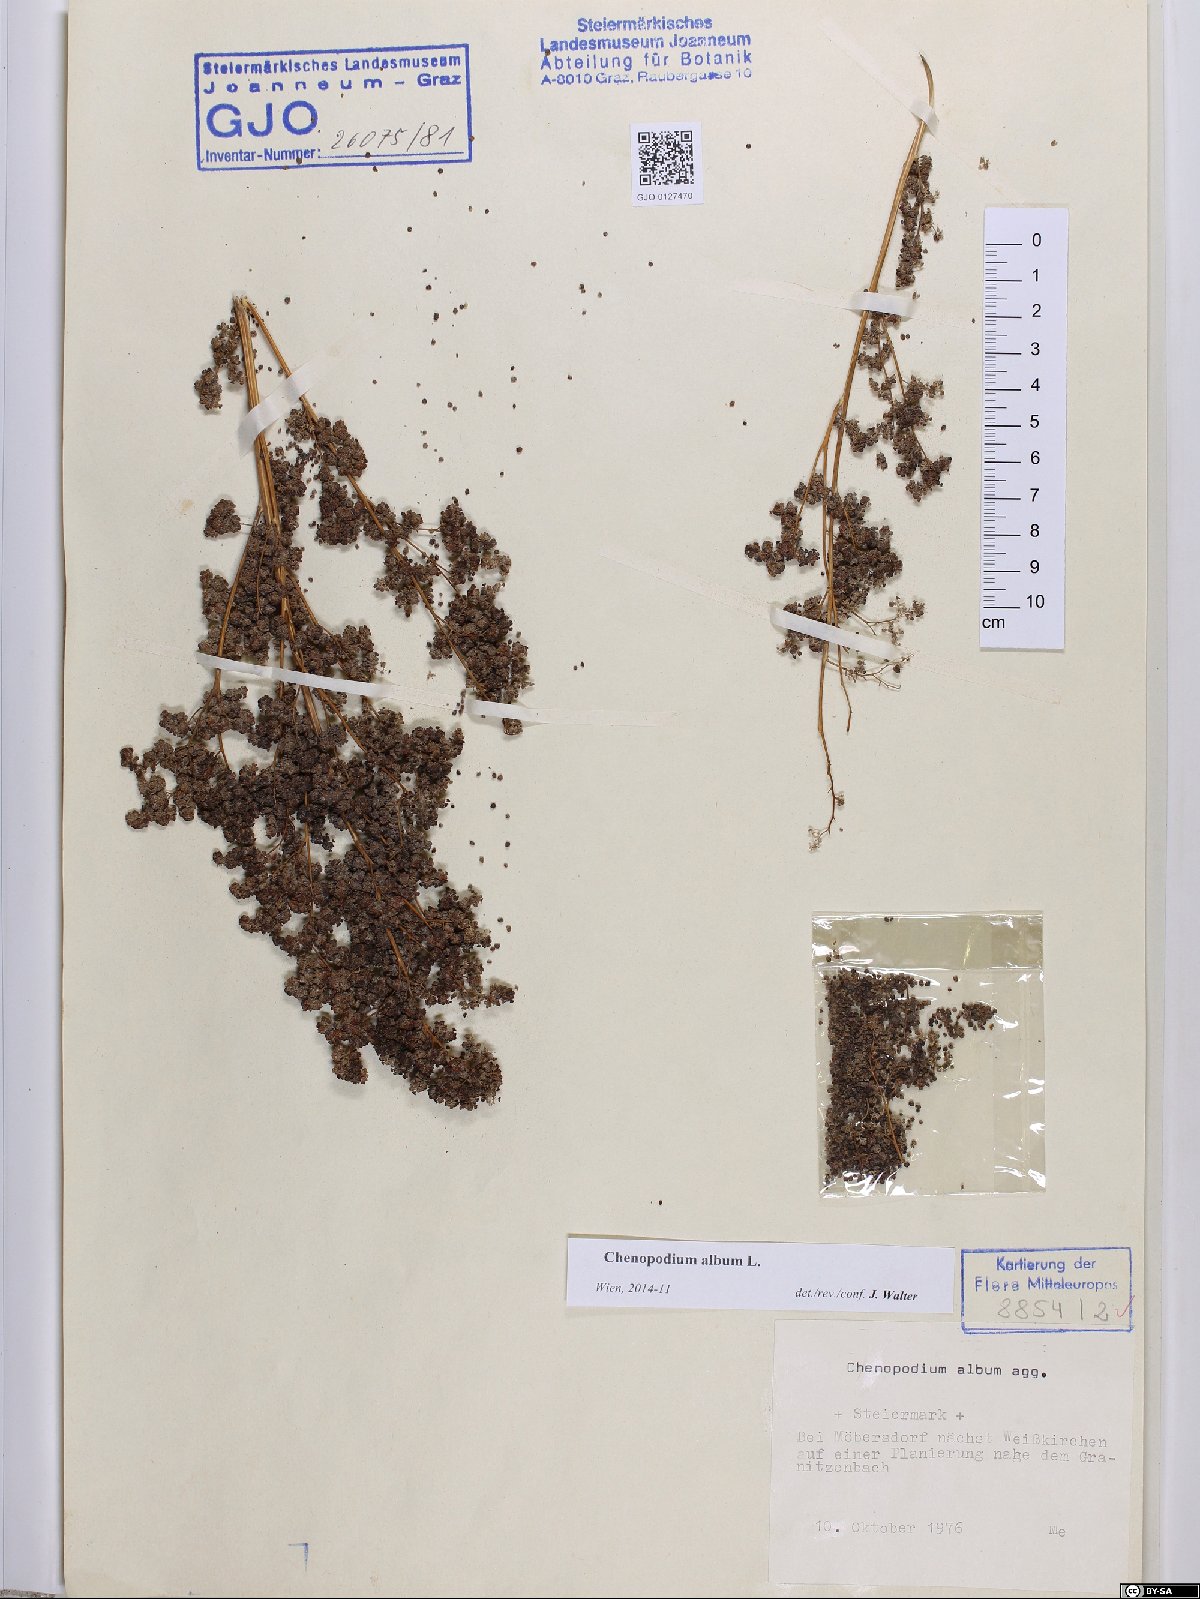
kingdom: Plantae
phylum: Tracheophyta
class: Magnoliopsida
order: Caryophyllales
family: Amaranthaceae
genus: Chenopodium
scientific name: Chenopodium album
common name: Fat-hen
